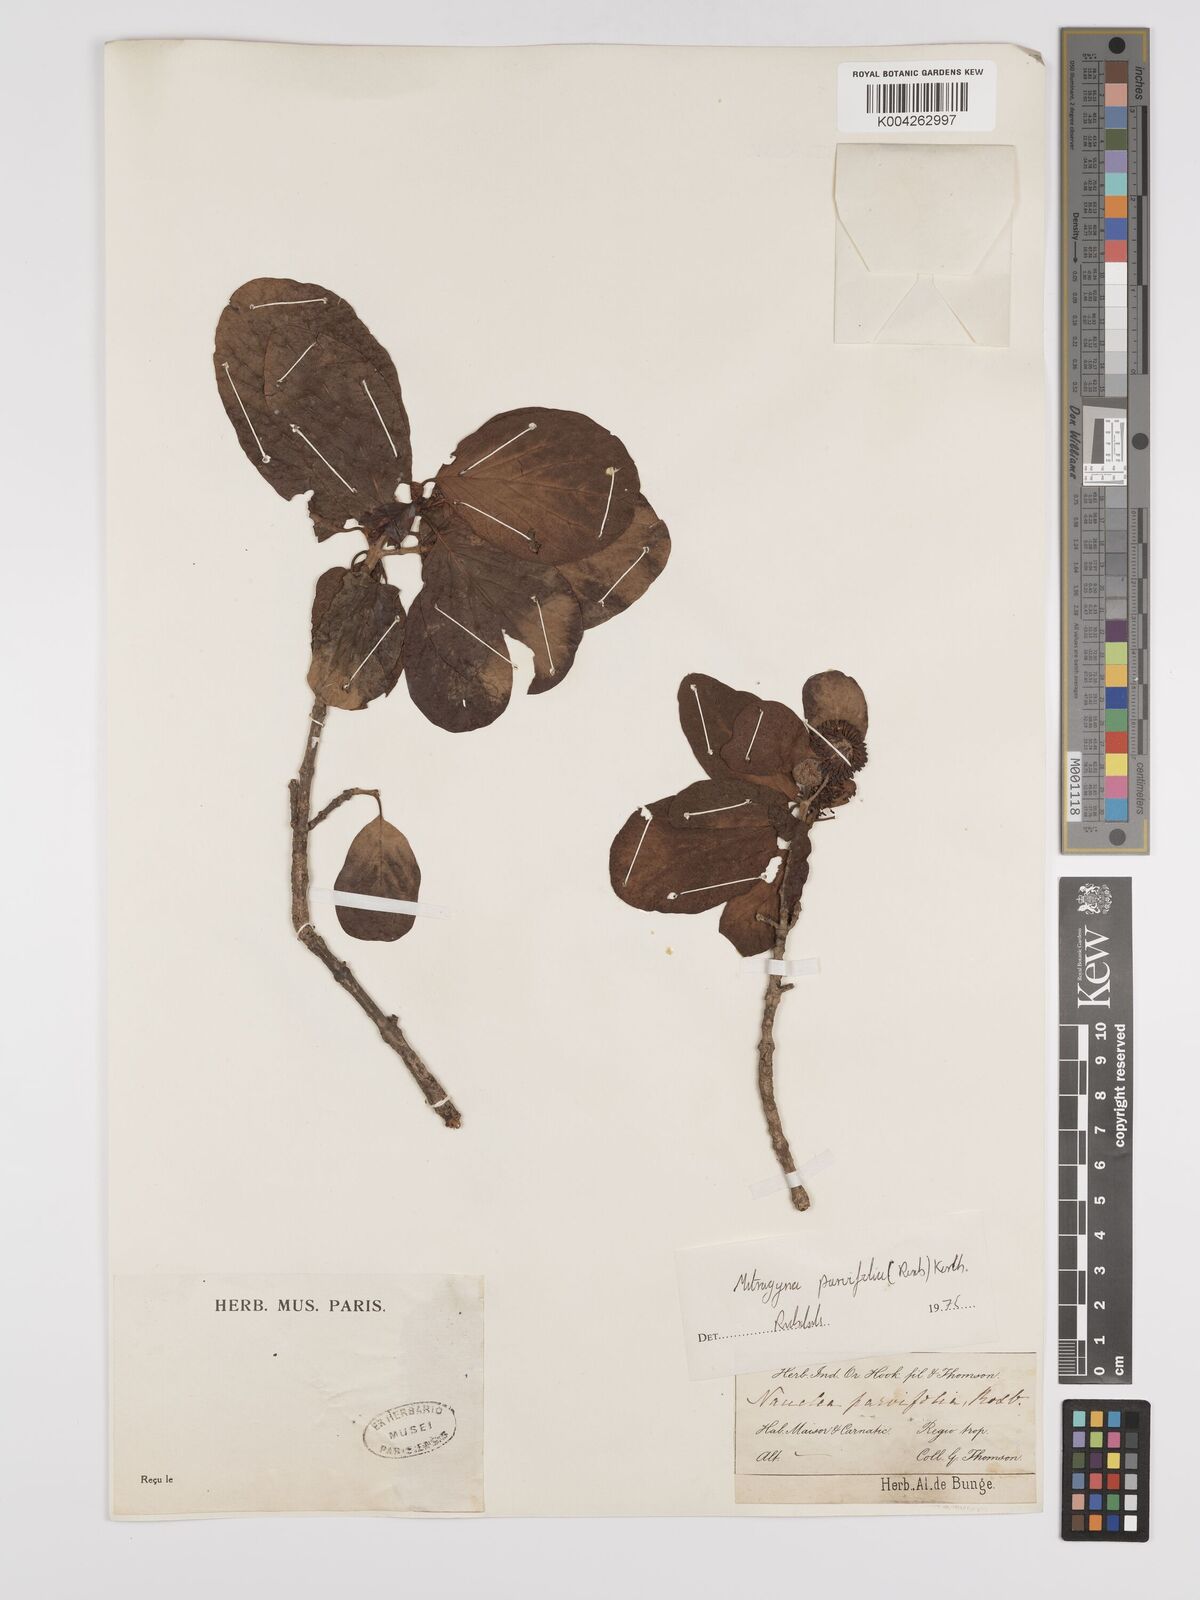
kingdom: Plantae
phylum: Tracheophyta
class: Magnoliopsida
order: Gentianales
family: Rubiaceae
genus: Mitragyna
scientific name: Mitragyna parvifolia
